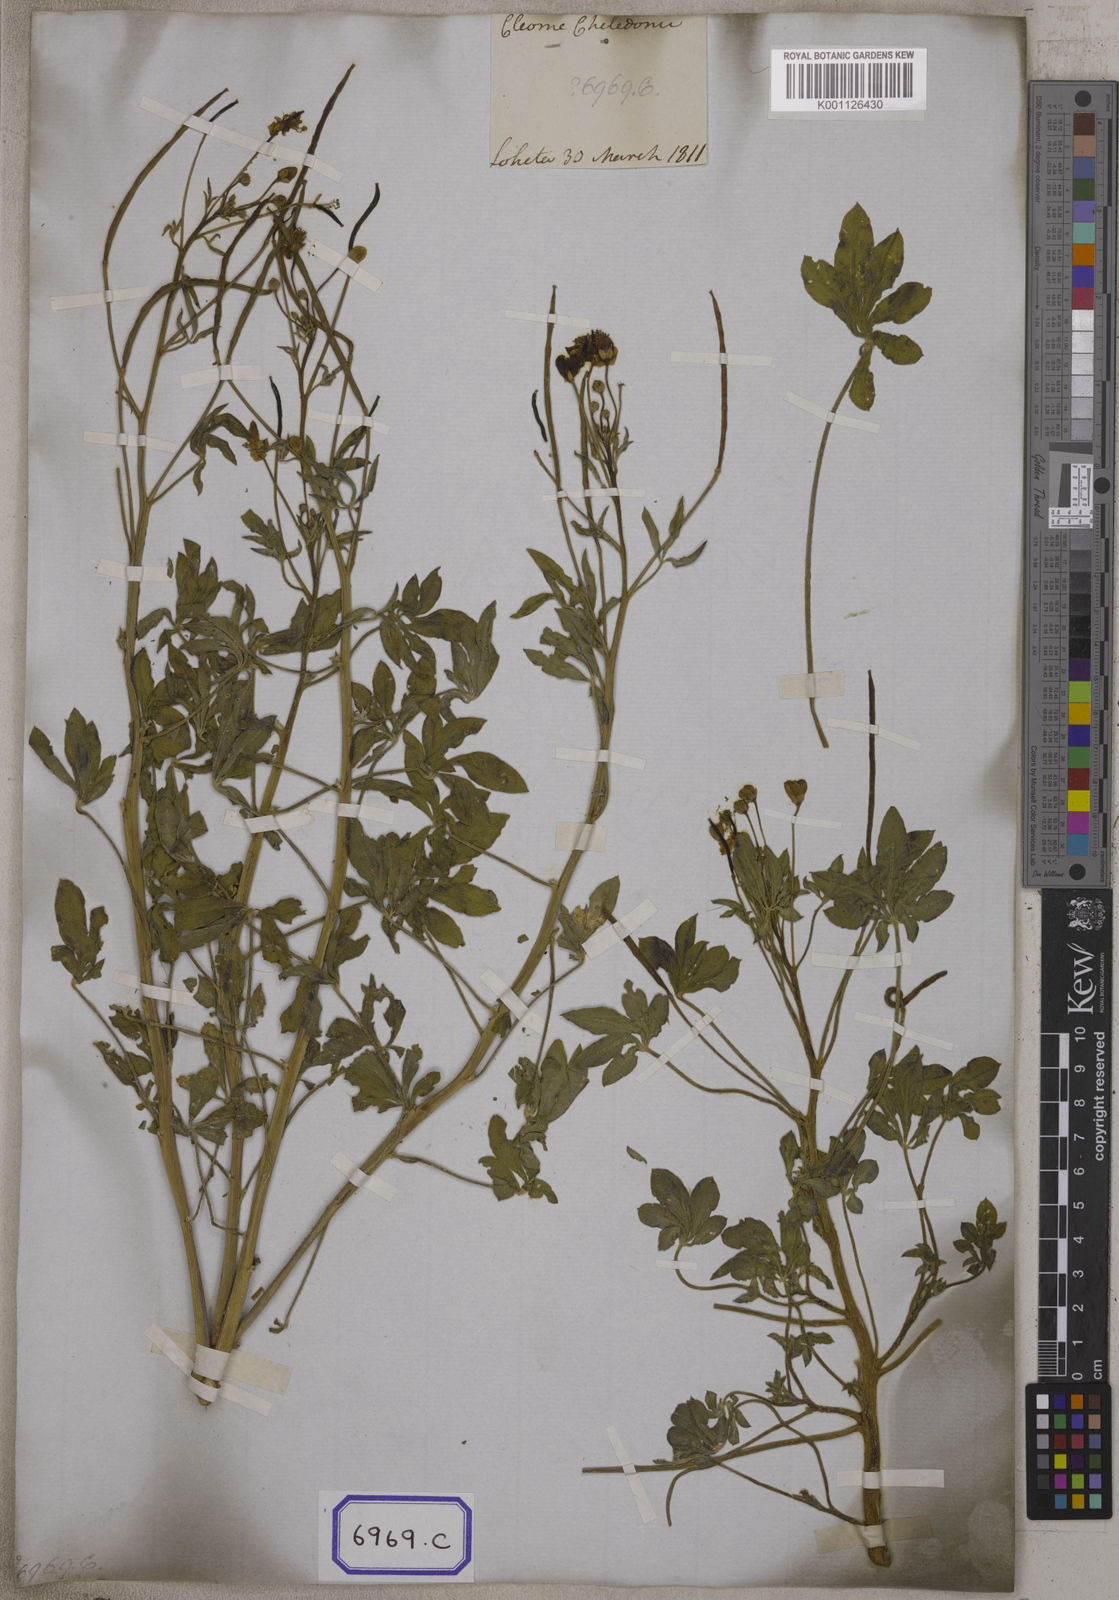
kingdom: Plantae
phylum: Tracheophyta
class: Magnoliopsida
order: Brassicales
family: Cleomaceae
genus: Corynandra
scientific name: Corynandra chelidonii
